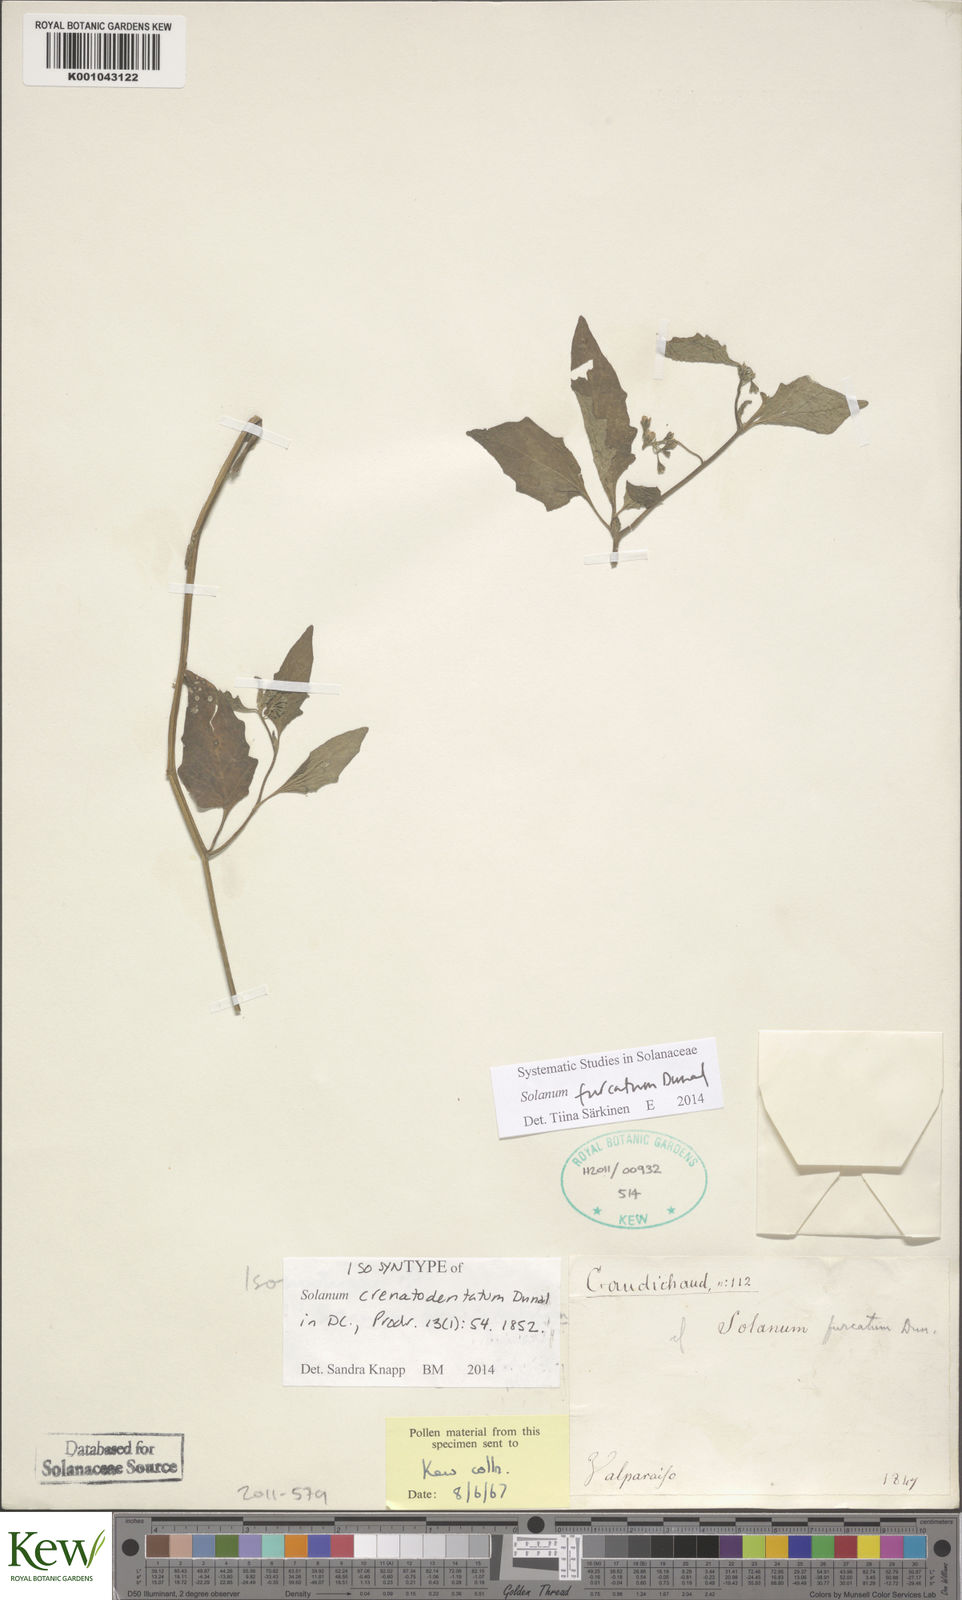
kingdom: Plantae
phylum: Tracheophyta
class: Magnoliopsida
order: Solanales
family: Solanaceae
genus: Solanum
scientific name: Solanum furcatum
